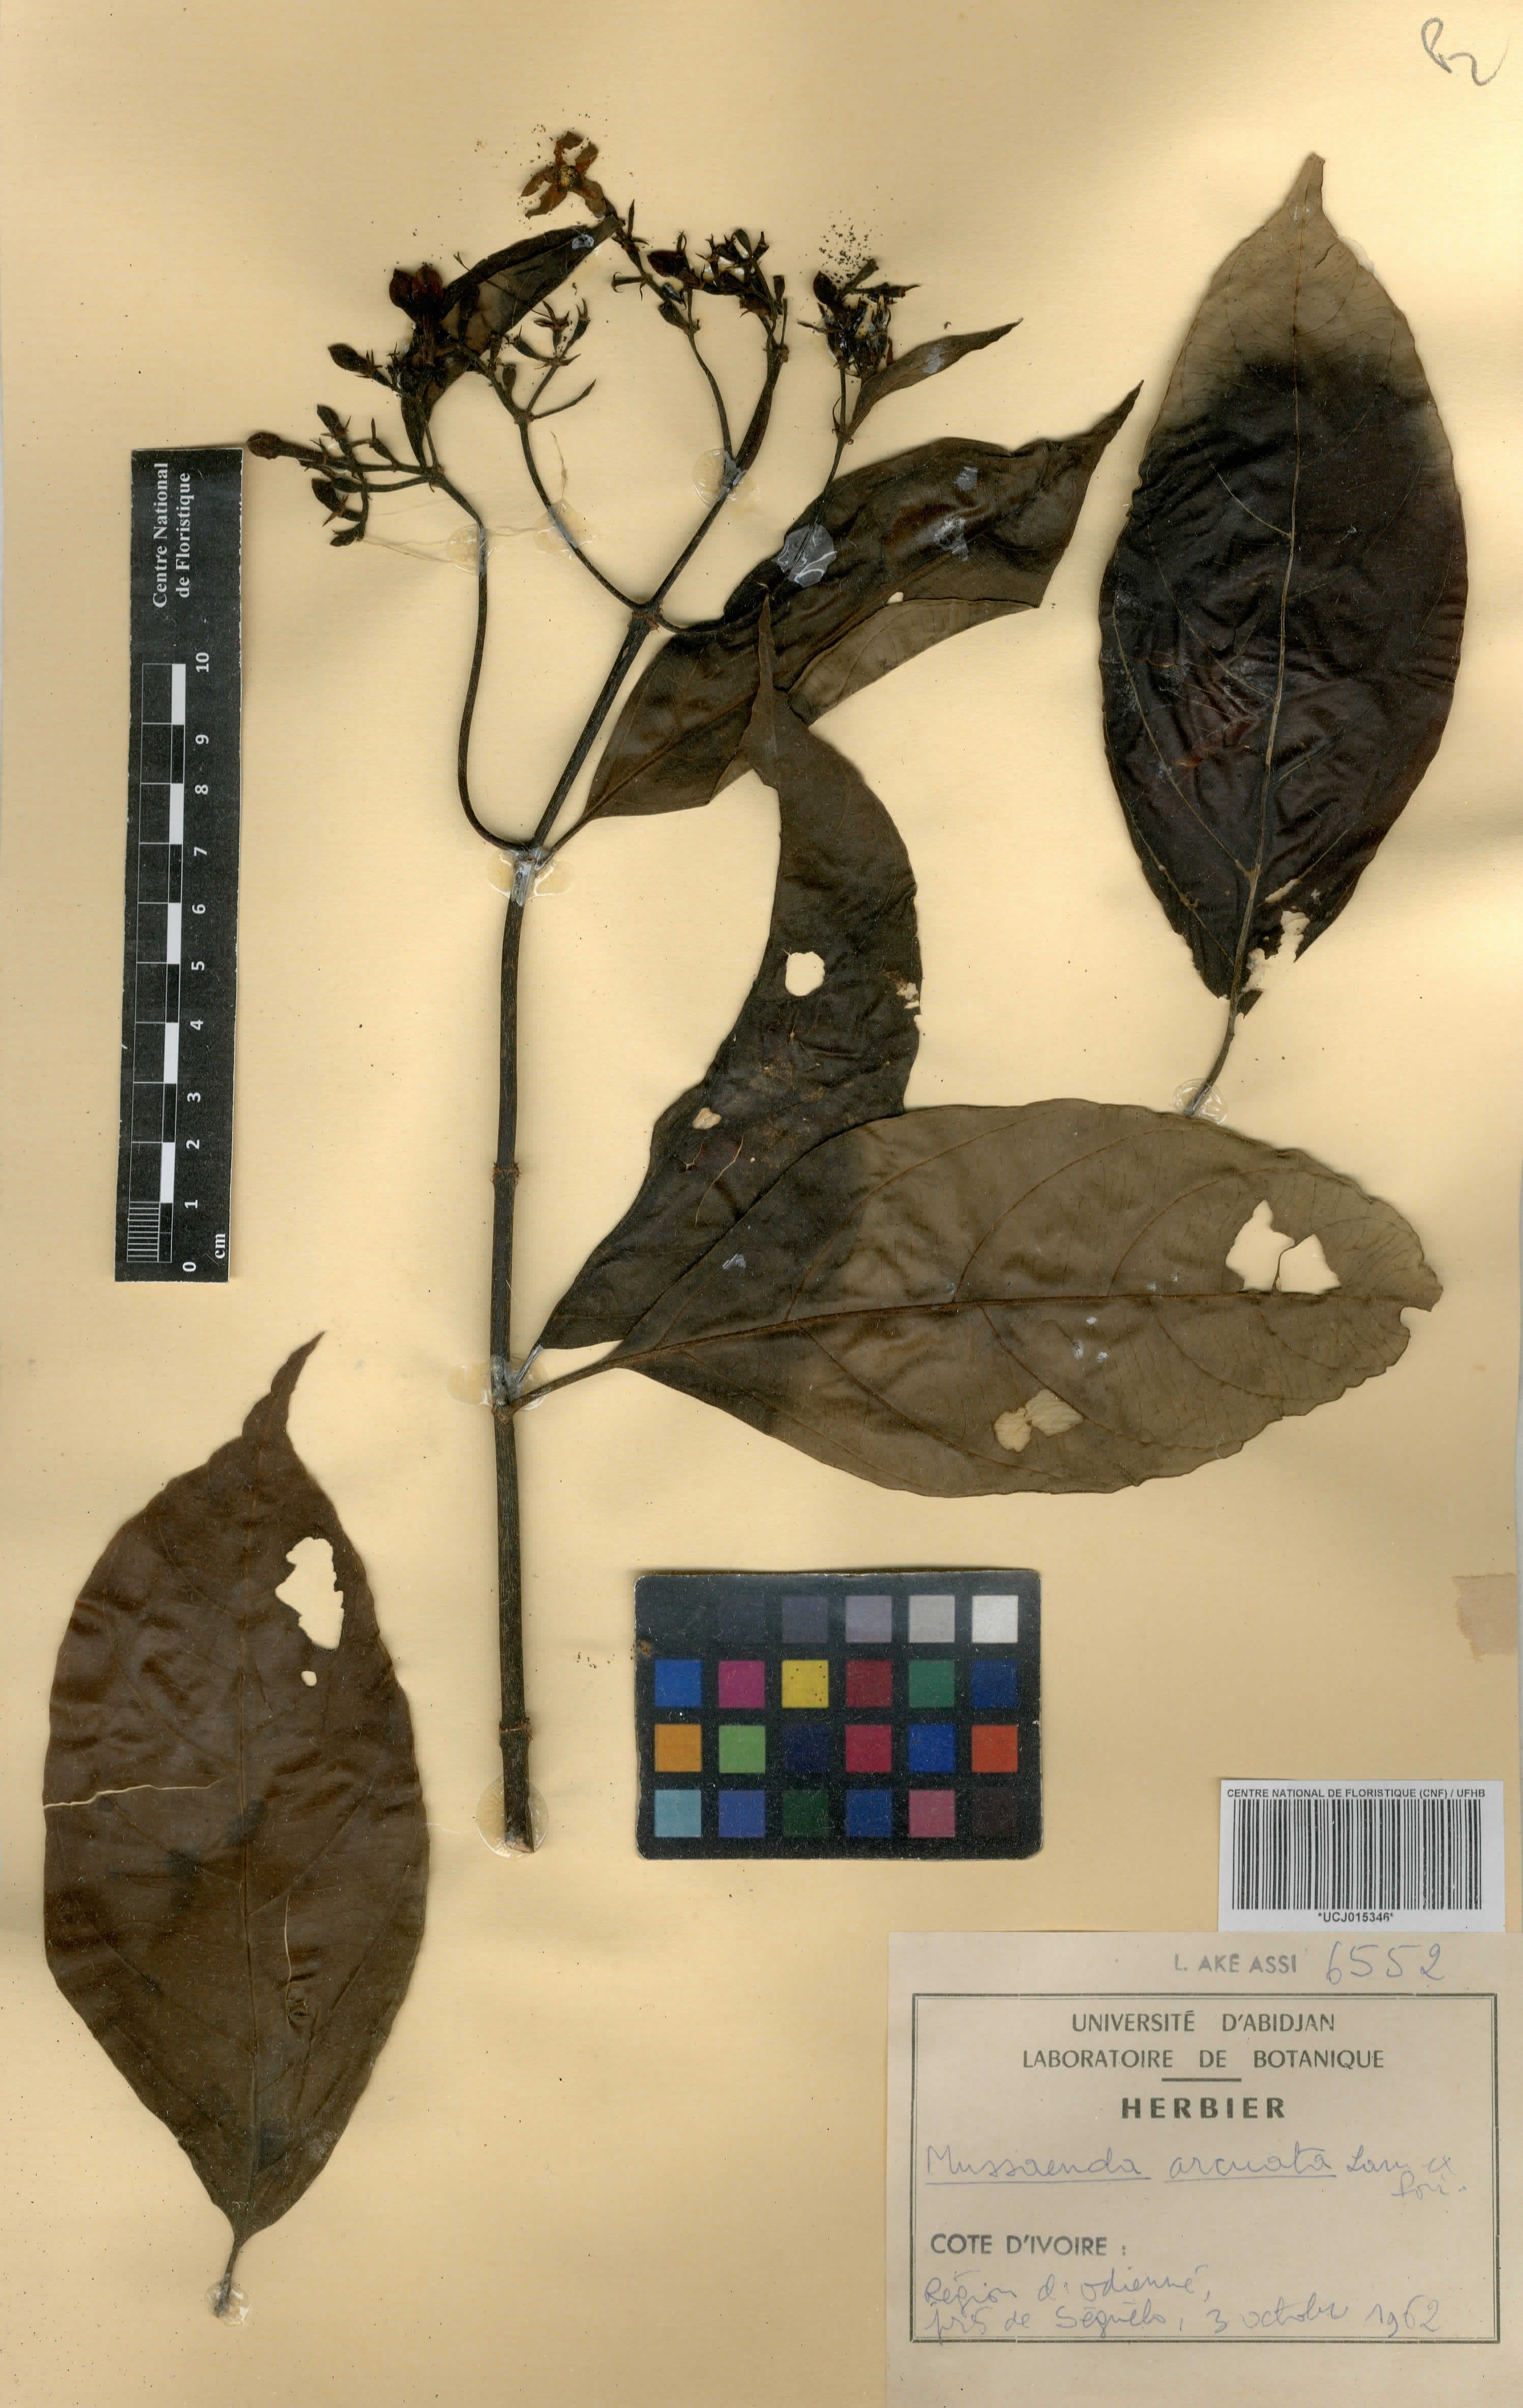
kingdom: Plantae
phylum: Tracheophyta
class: Magnoliopsida
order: Gentianales
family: Rubiaceae
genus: Mussaenda
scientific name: Mussaenda arcuata
